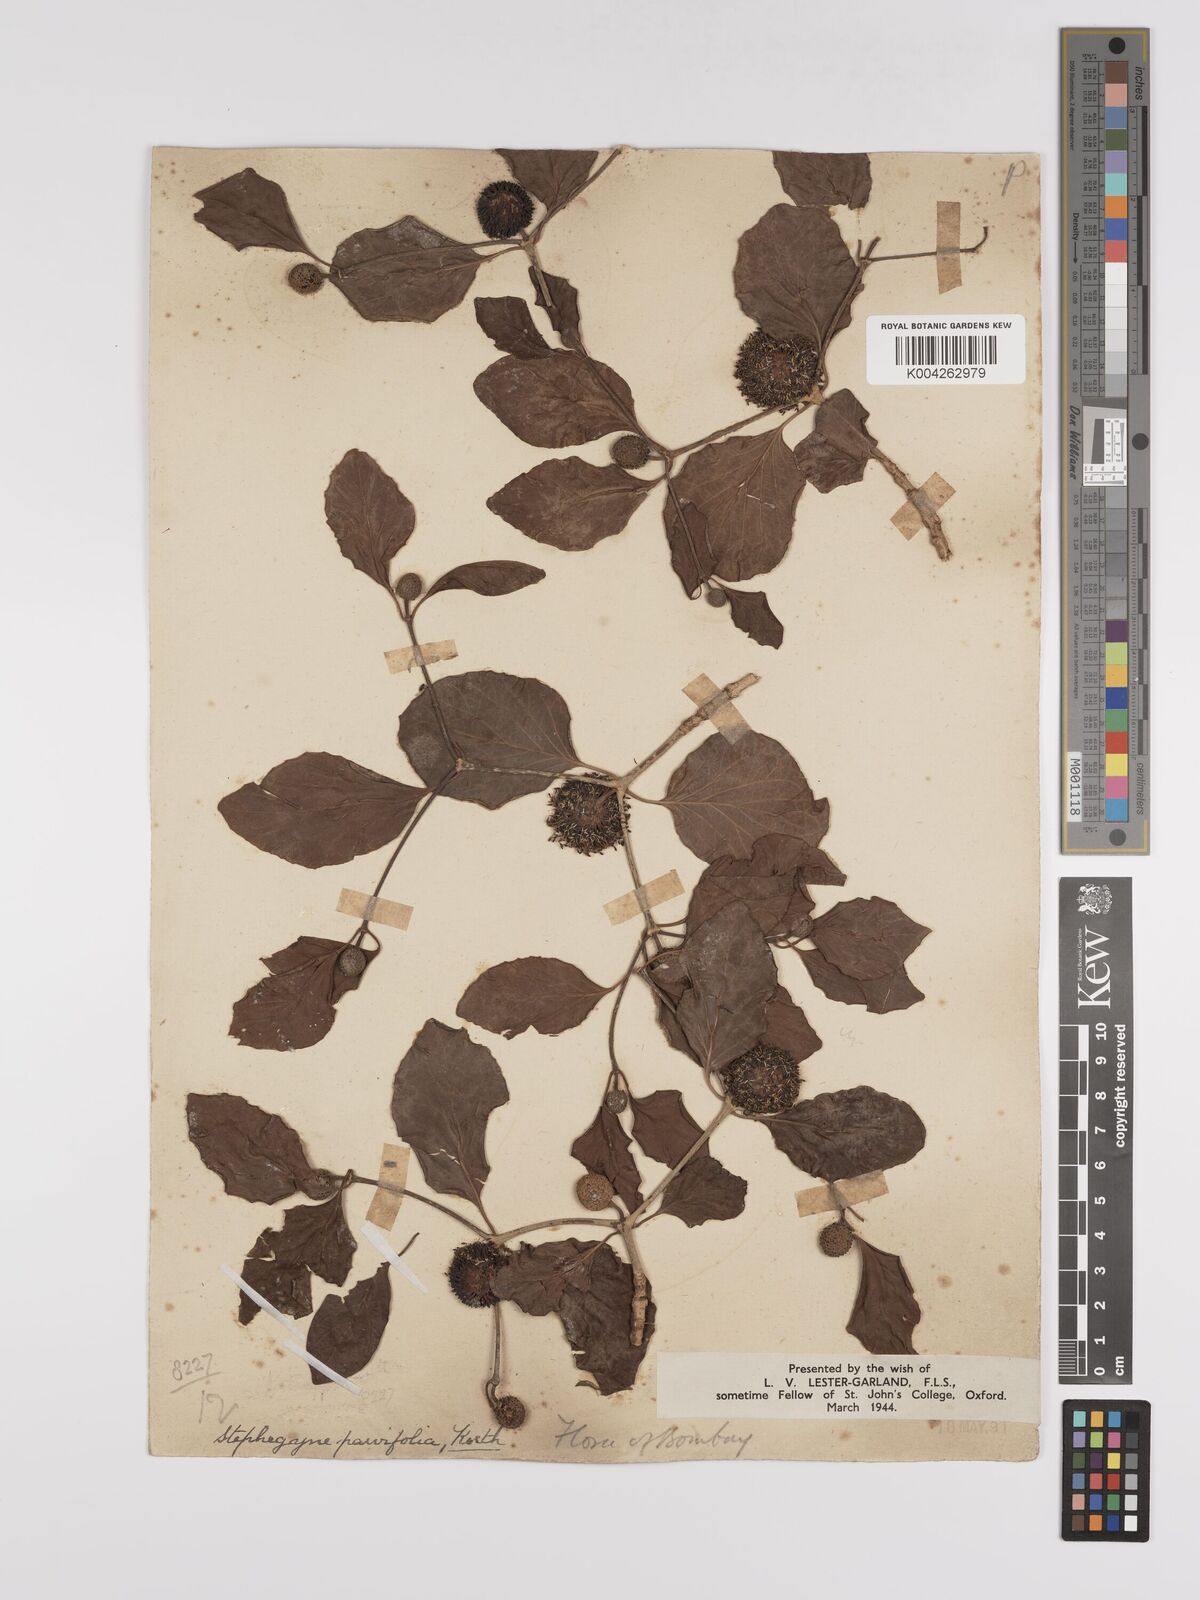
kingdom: Plantae
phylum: Tracheophyta
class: Magnoliopsida
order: Gentianales
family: Rubiaceae
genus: Mitragyna
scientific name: Mitragyna parvifolia
